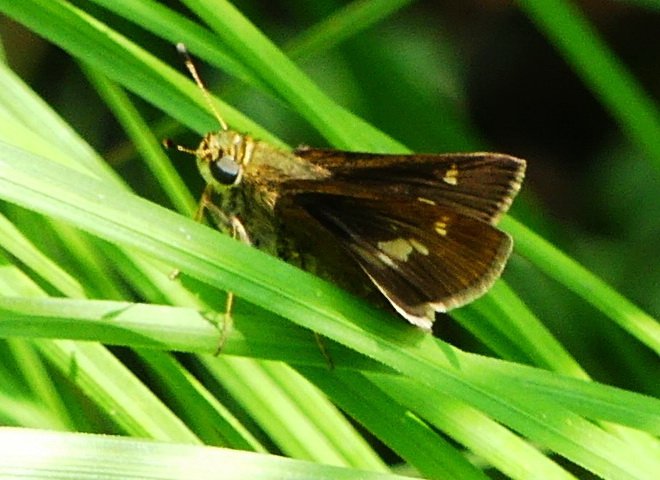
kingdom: Animalia
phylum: Arthropoda
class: Insecta
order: Lepidoptera
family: Hesperiidae
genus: Vernia
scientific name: Vernia verna
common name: Little Glassywing
